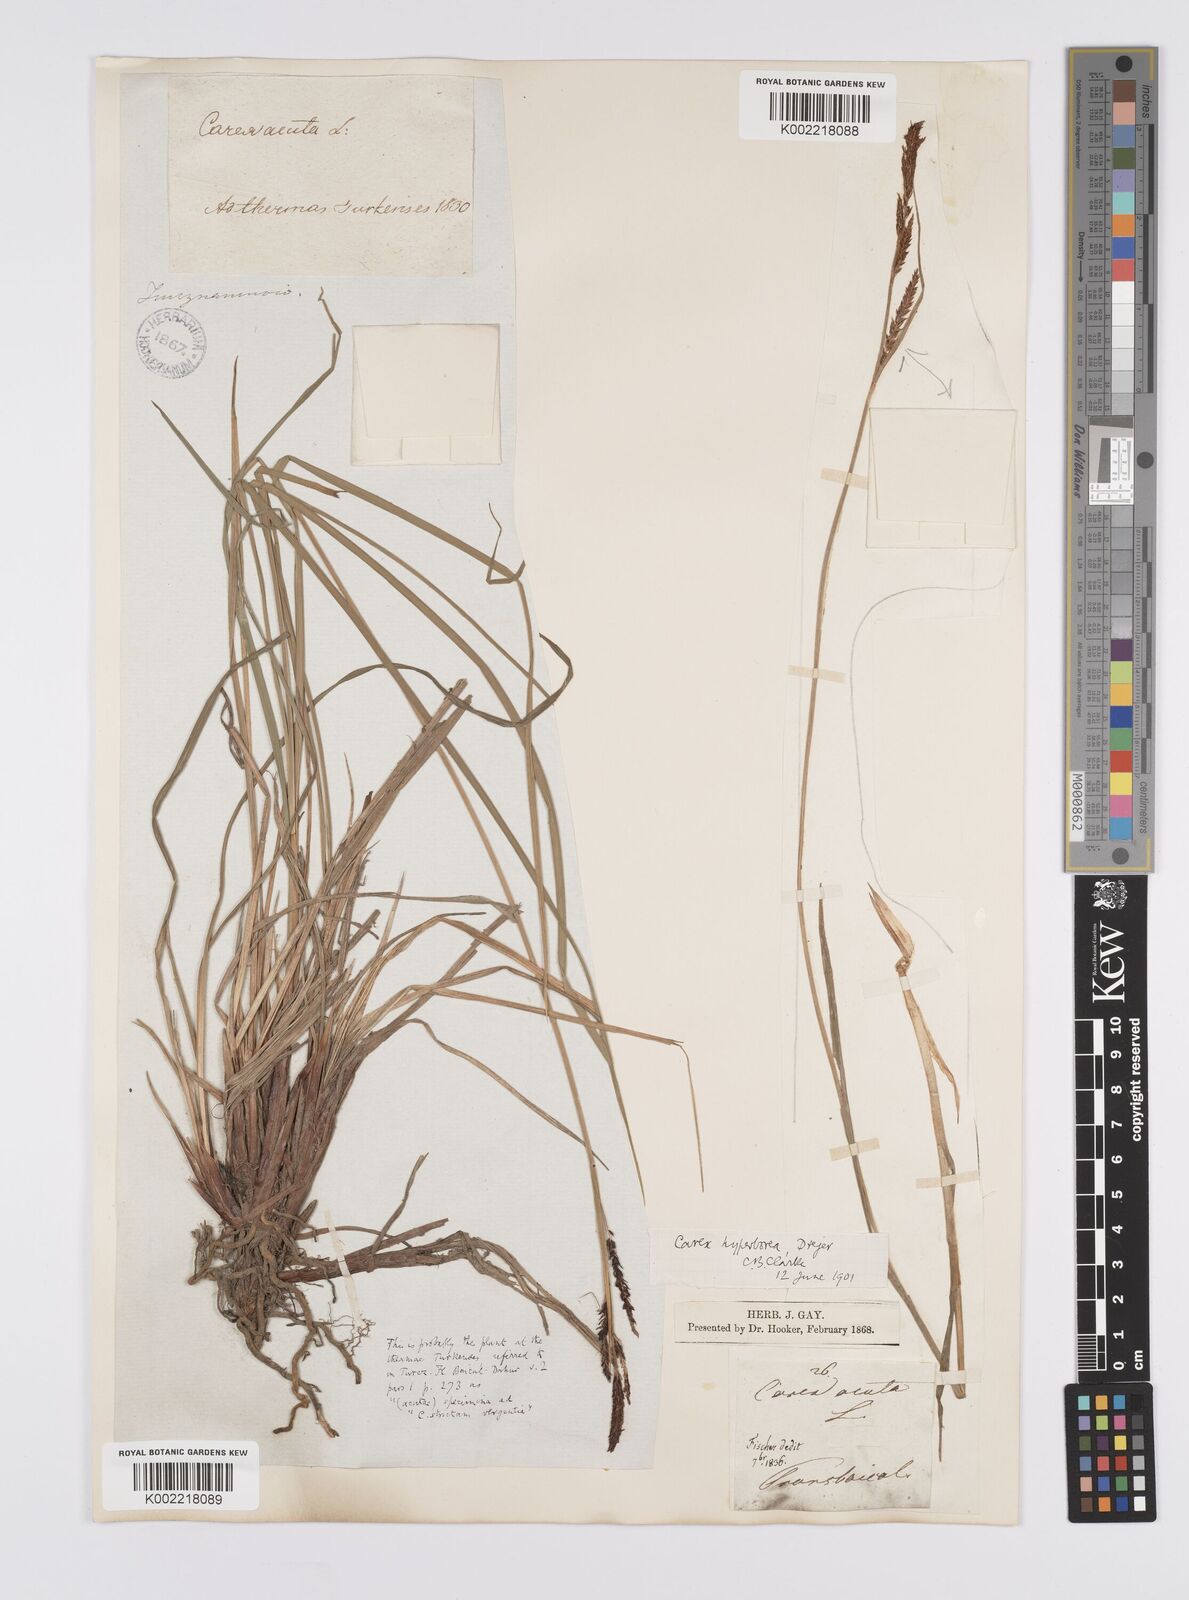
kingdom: Plantae
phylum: Tracheophyta
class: Liliopsida
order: Poales
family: Cyperaceae
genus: Carex
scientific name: Carex aquatilis
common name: Water sedge
